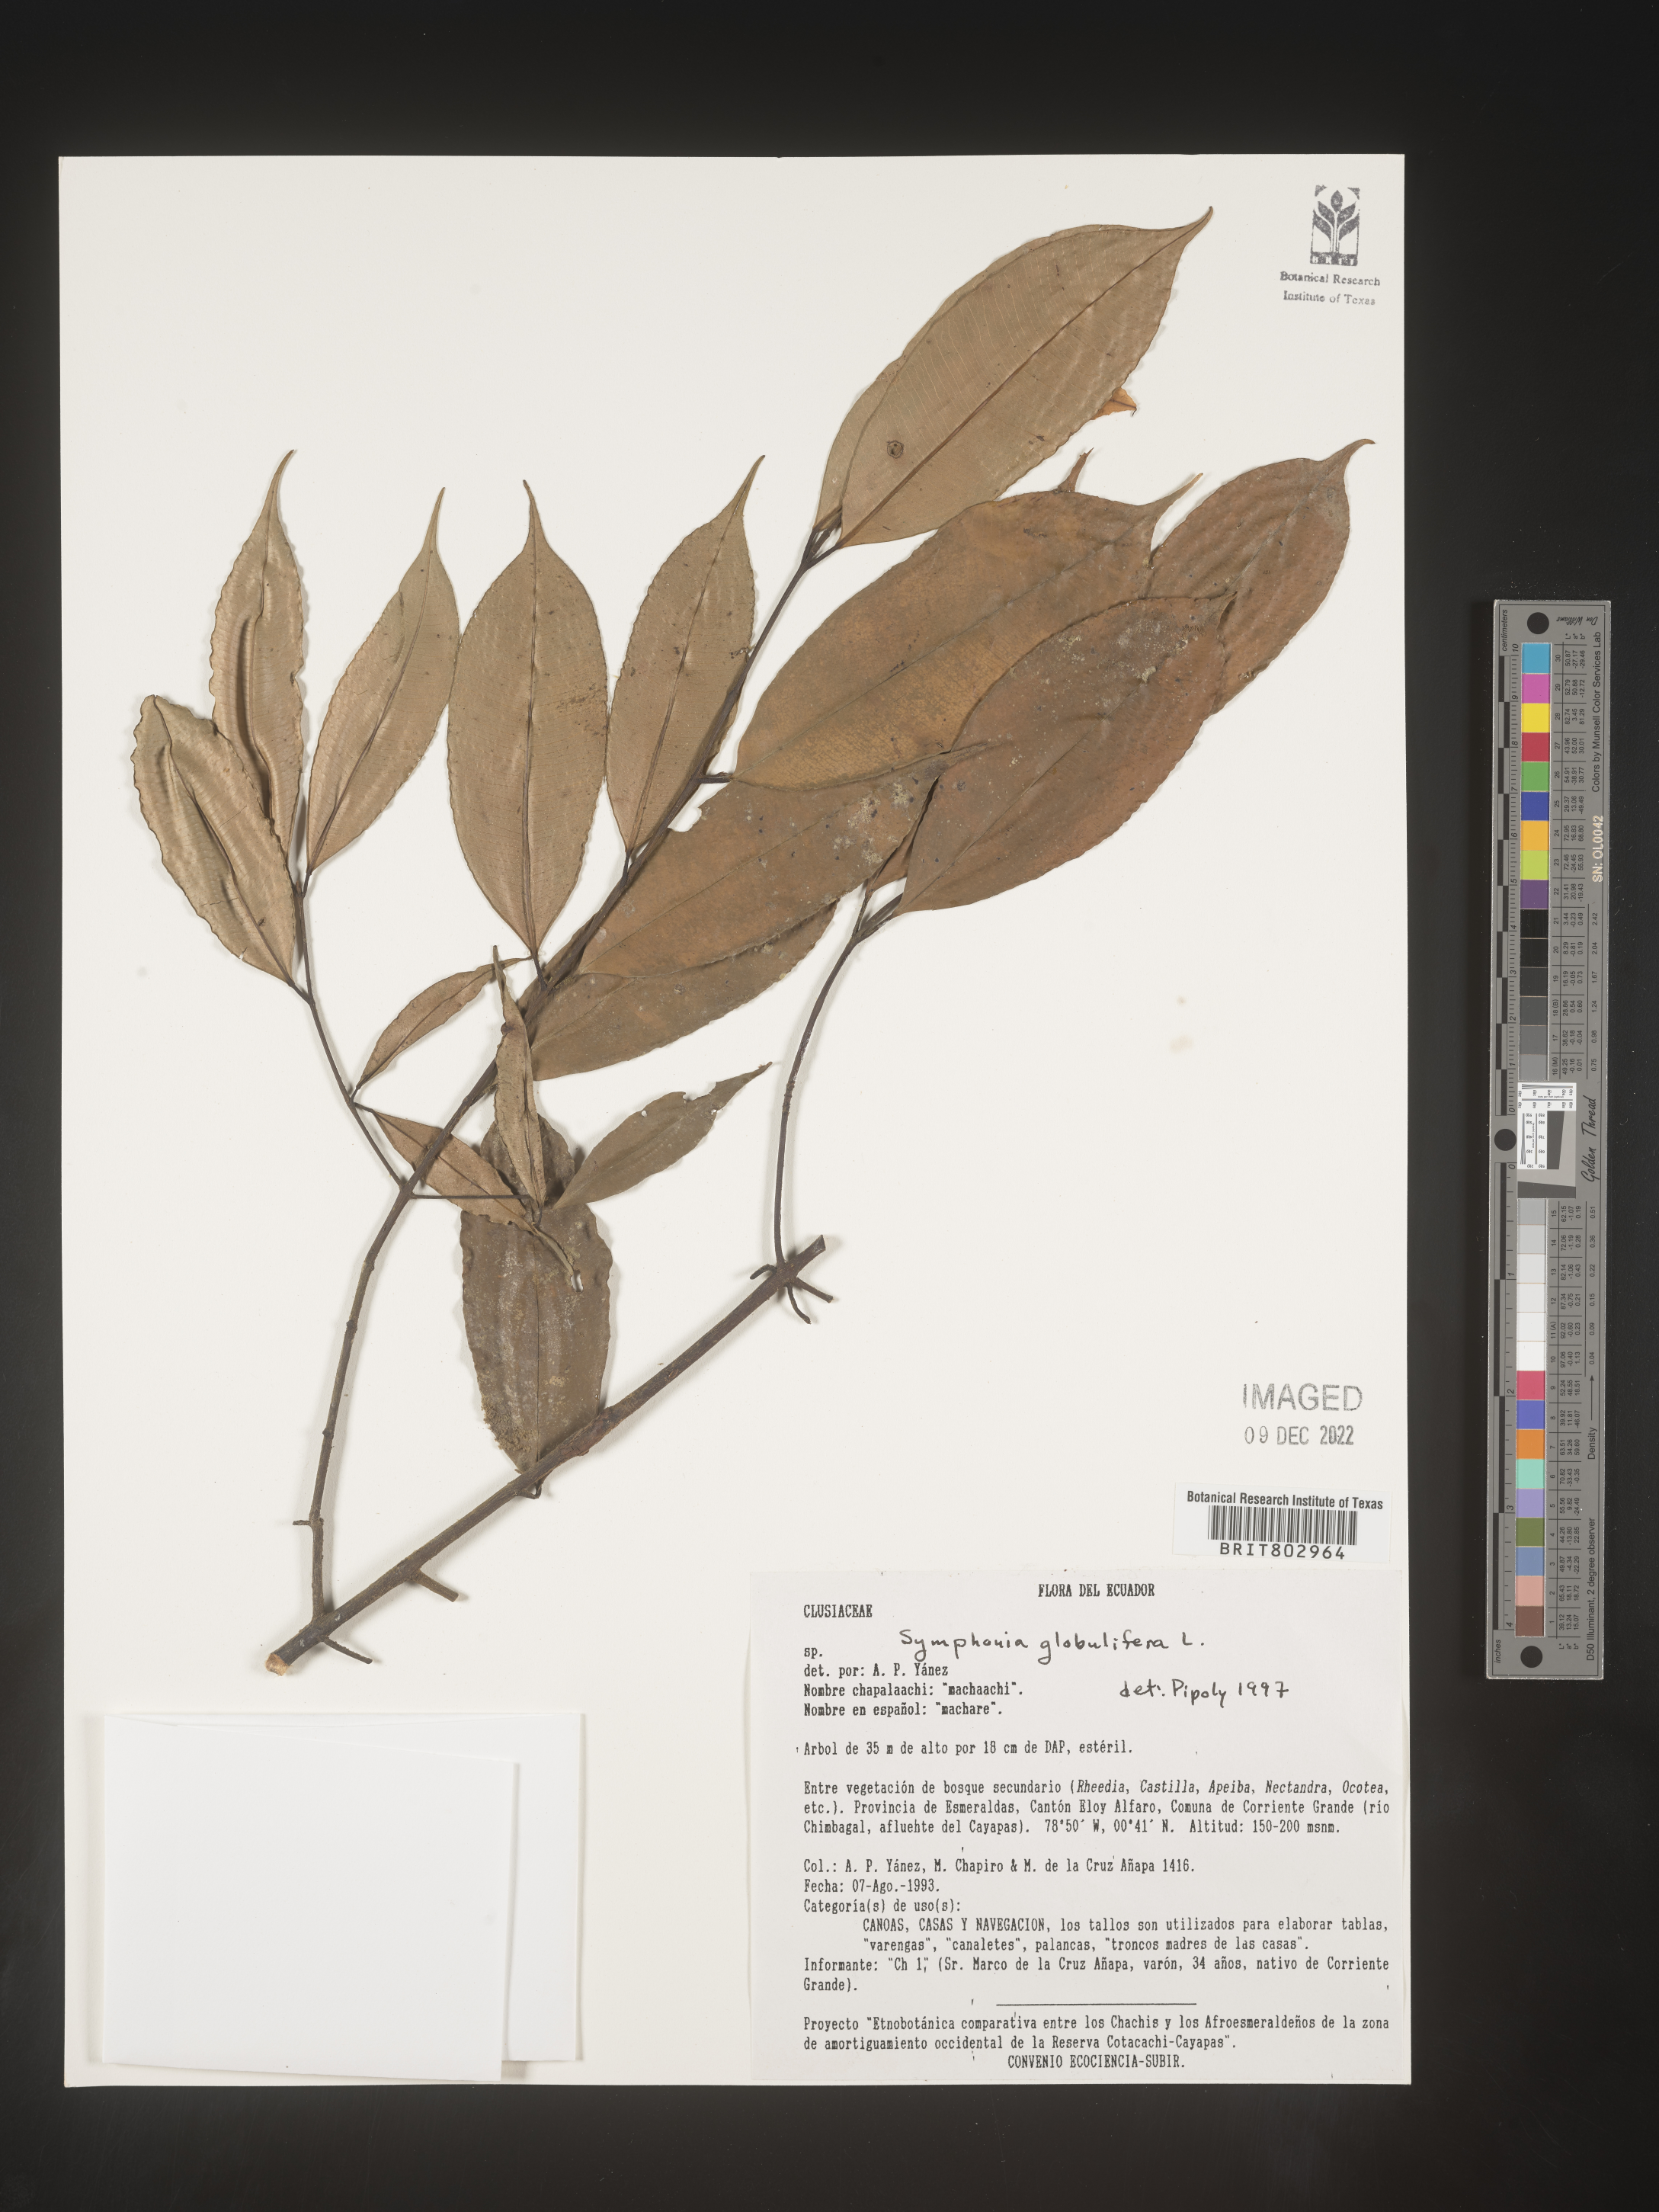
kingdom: Plantae
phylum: Tracheophyta
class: Magnoliopsida
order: Malpighiales
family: Clusiaceae
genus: Symphonia
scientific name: Symphonia
